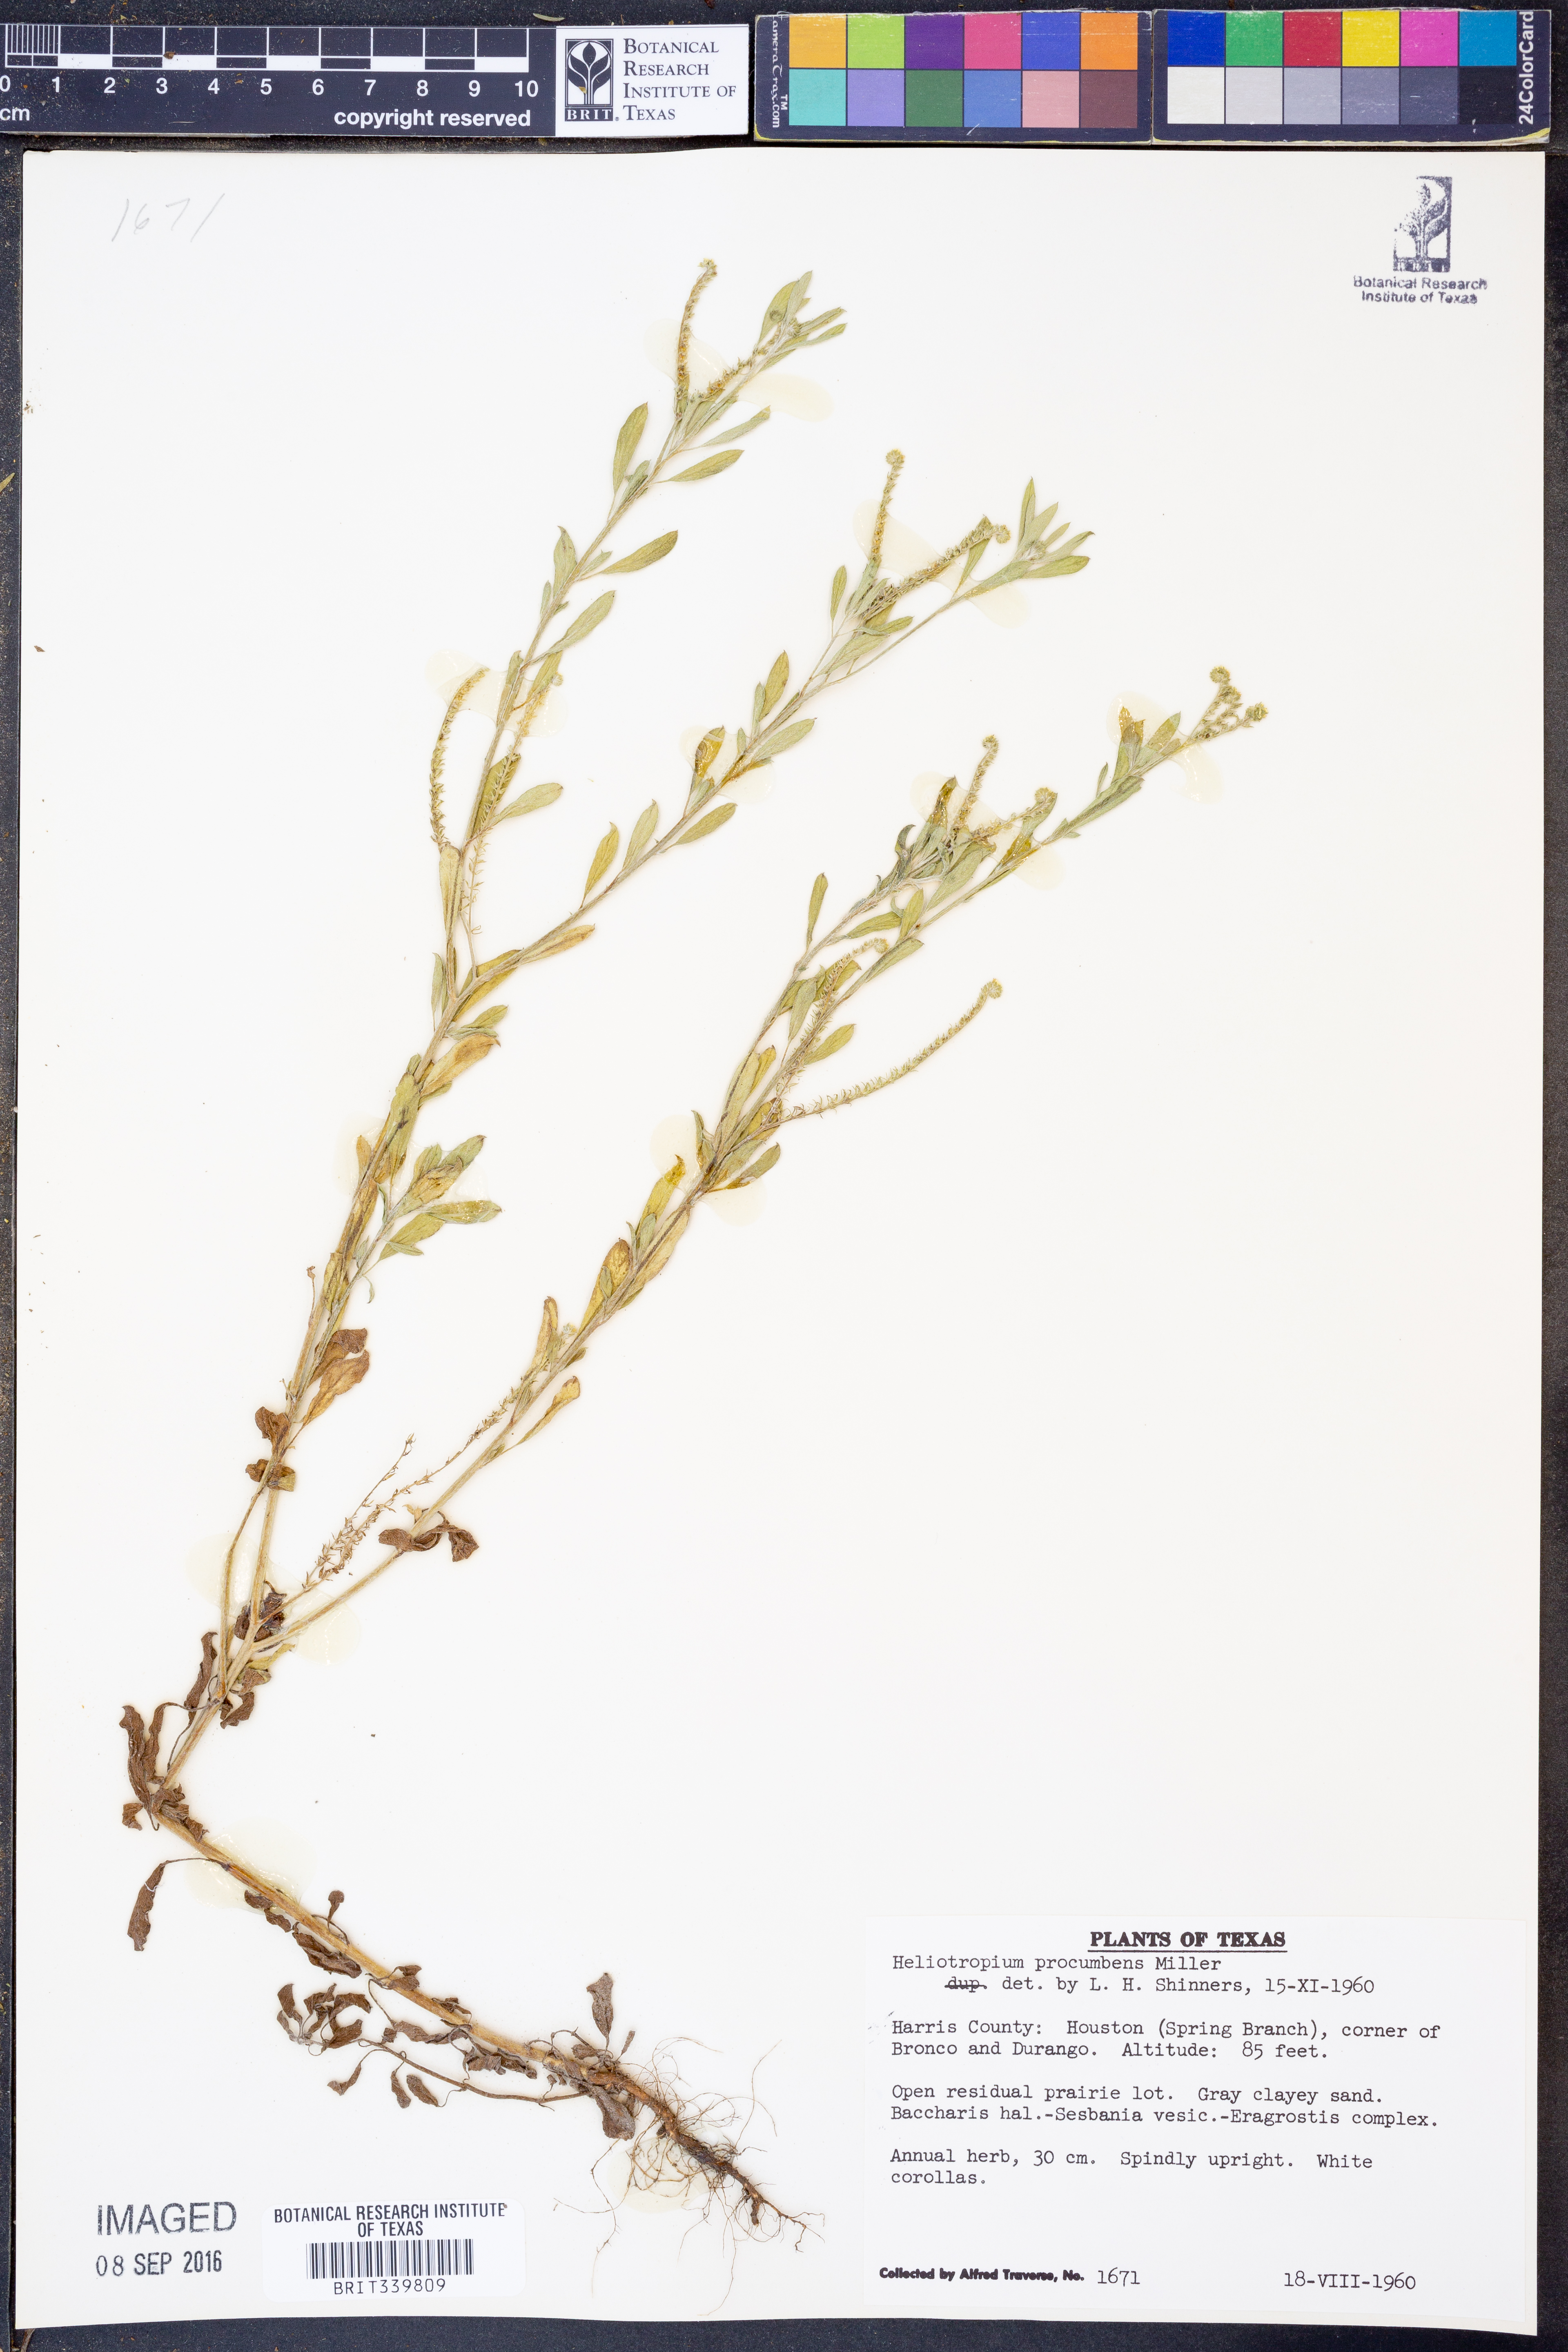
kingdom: Plantae
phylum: Tracheophyta
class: Magnoliopsida
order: Boraginales
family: Heliotropiaceae
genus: Euploca
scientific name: Euploca procumbens
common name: Fourspike heliotrope
